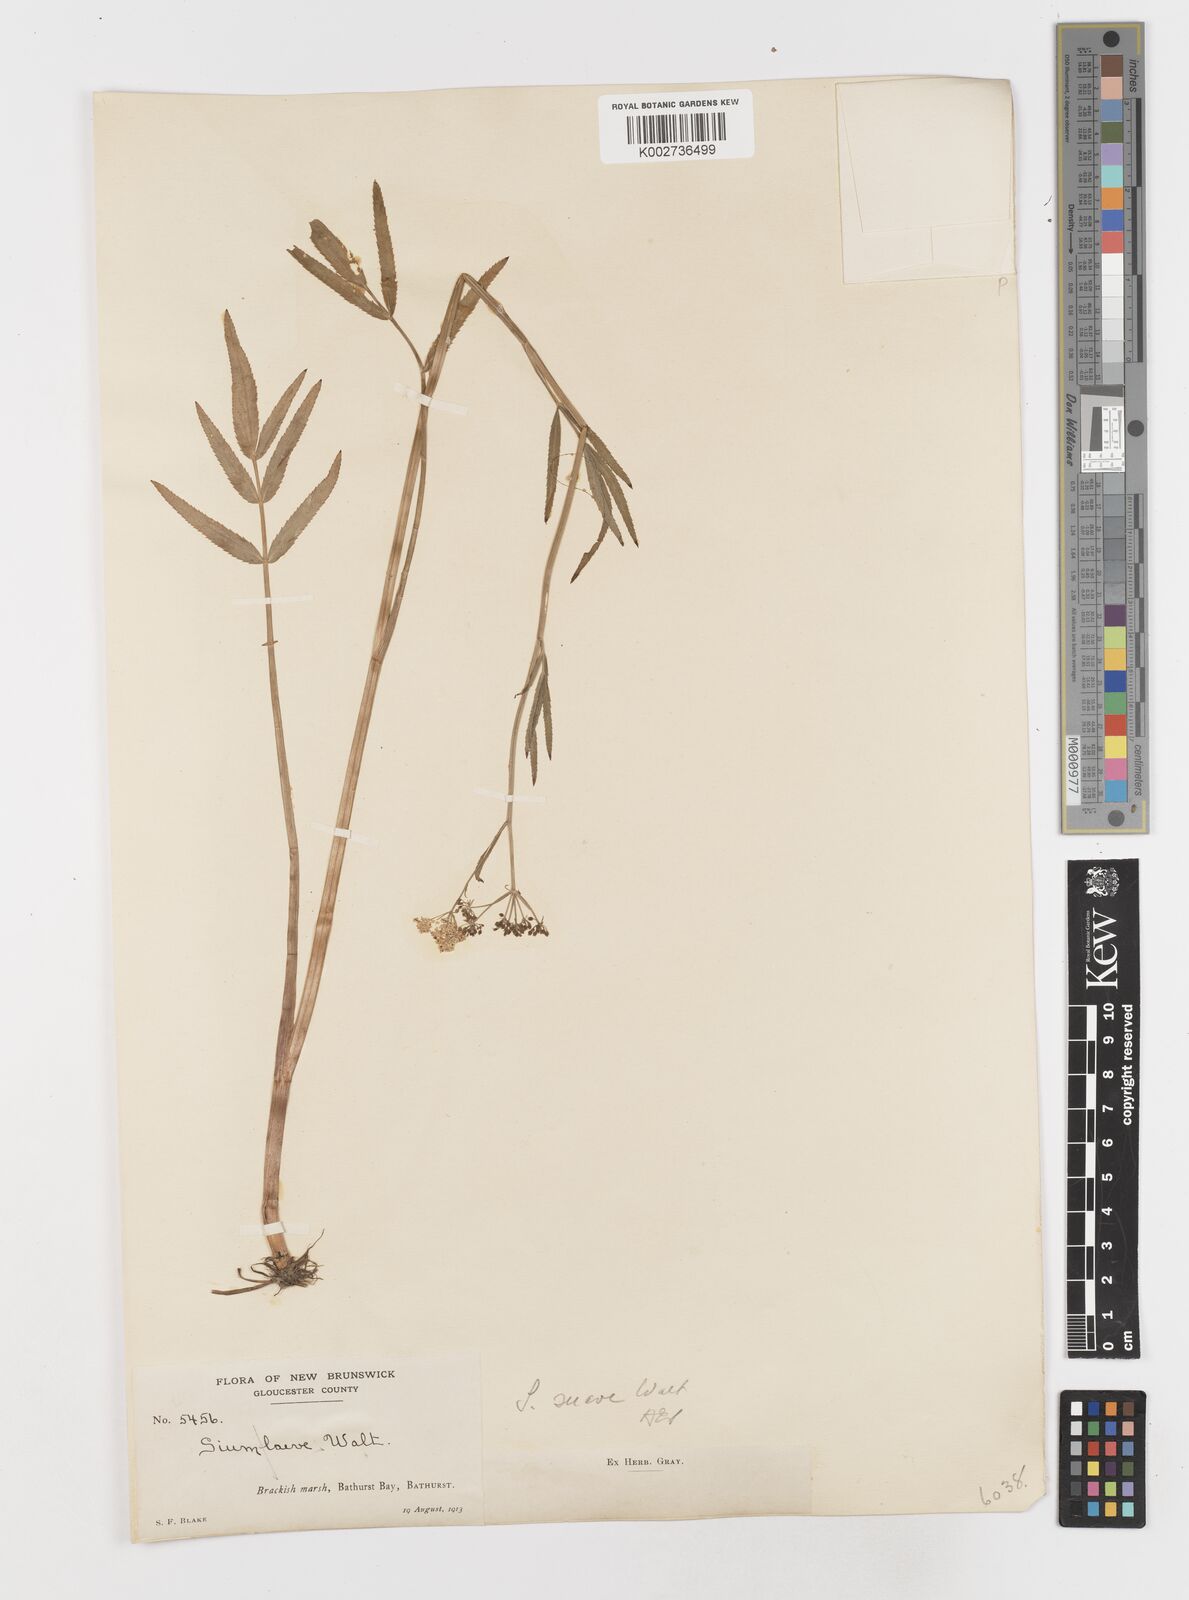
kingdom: Plantae
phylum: Tracheophyta
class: Magnoliopsida
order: Apiales
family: Apiaceae
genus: Sium
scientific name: Sium suave
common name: Hemlock water-parsnip
